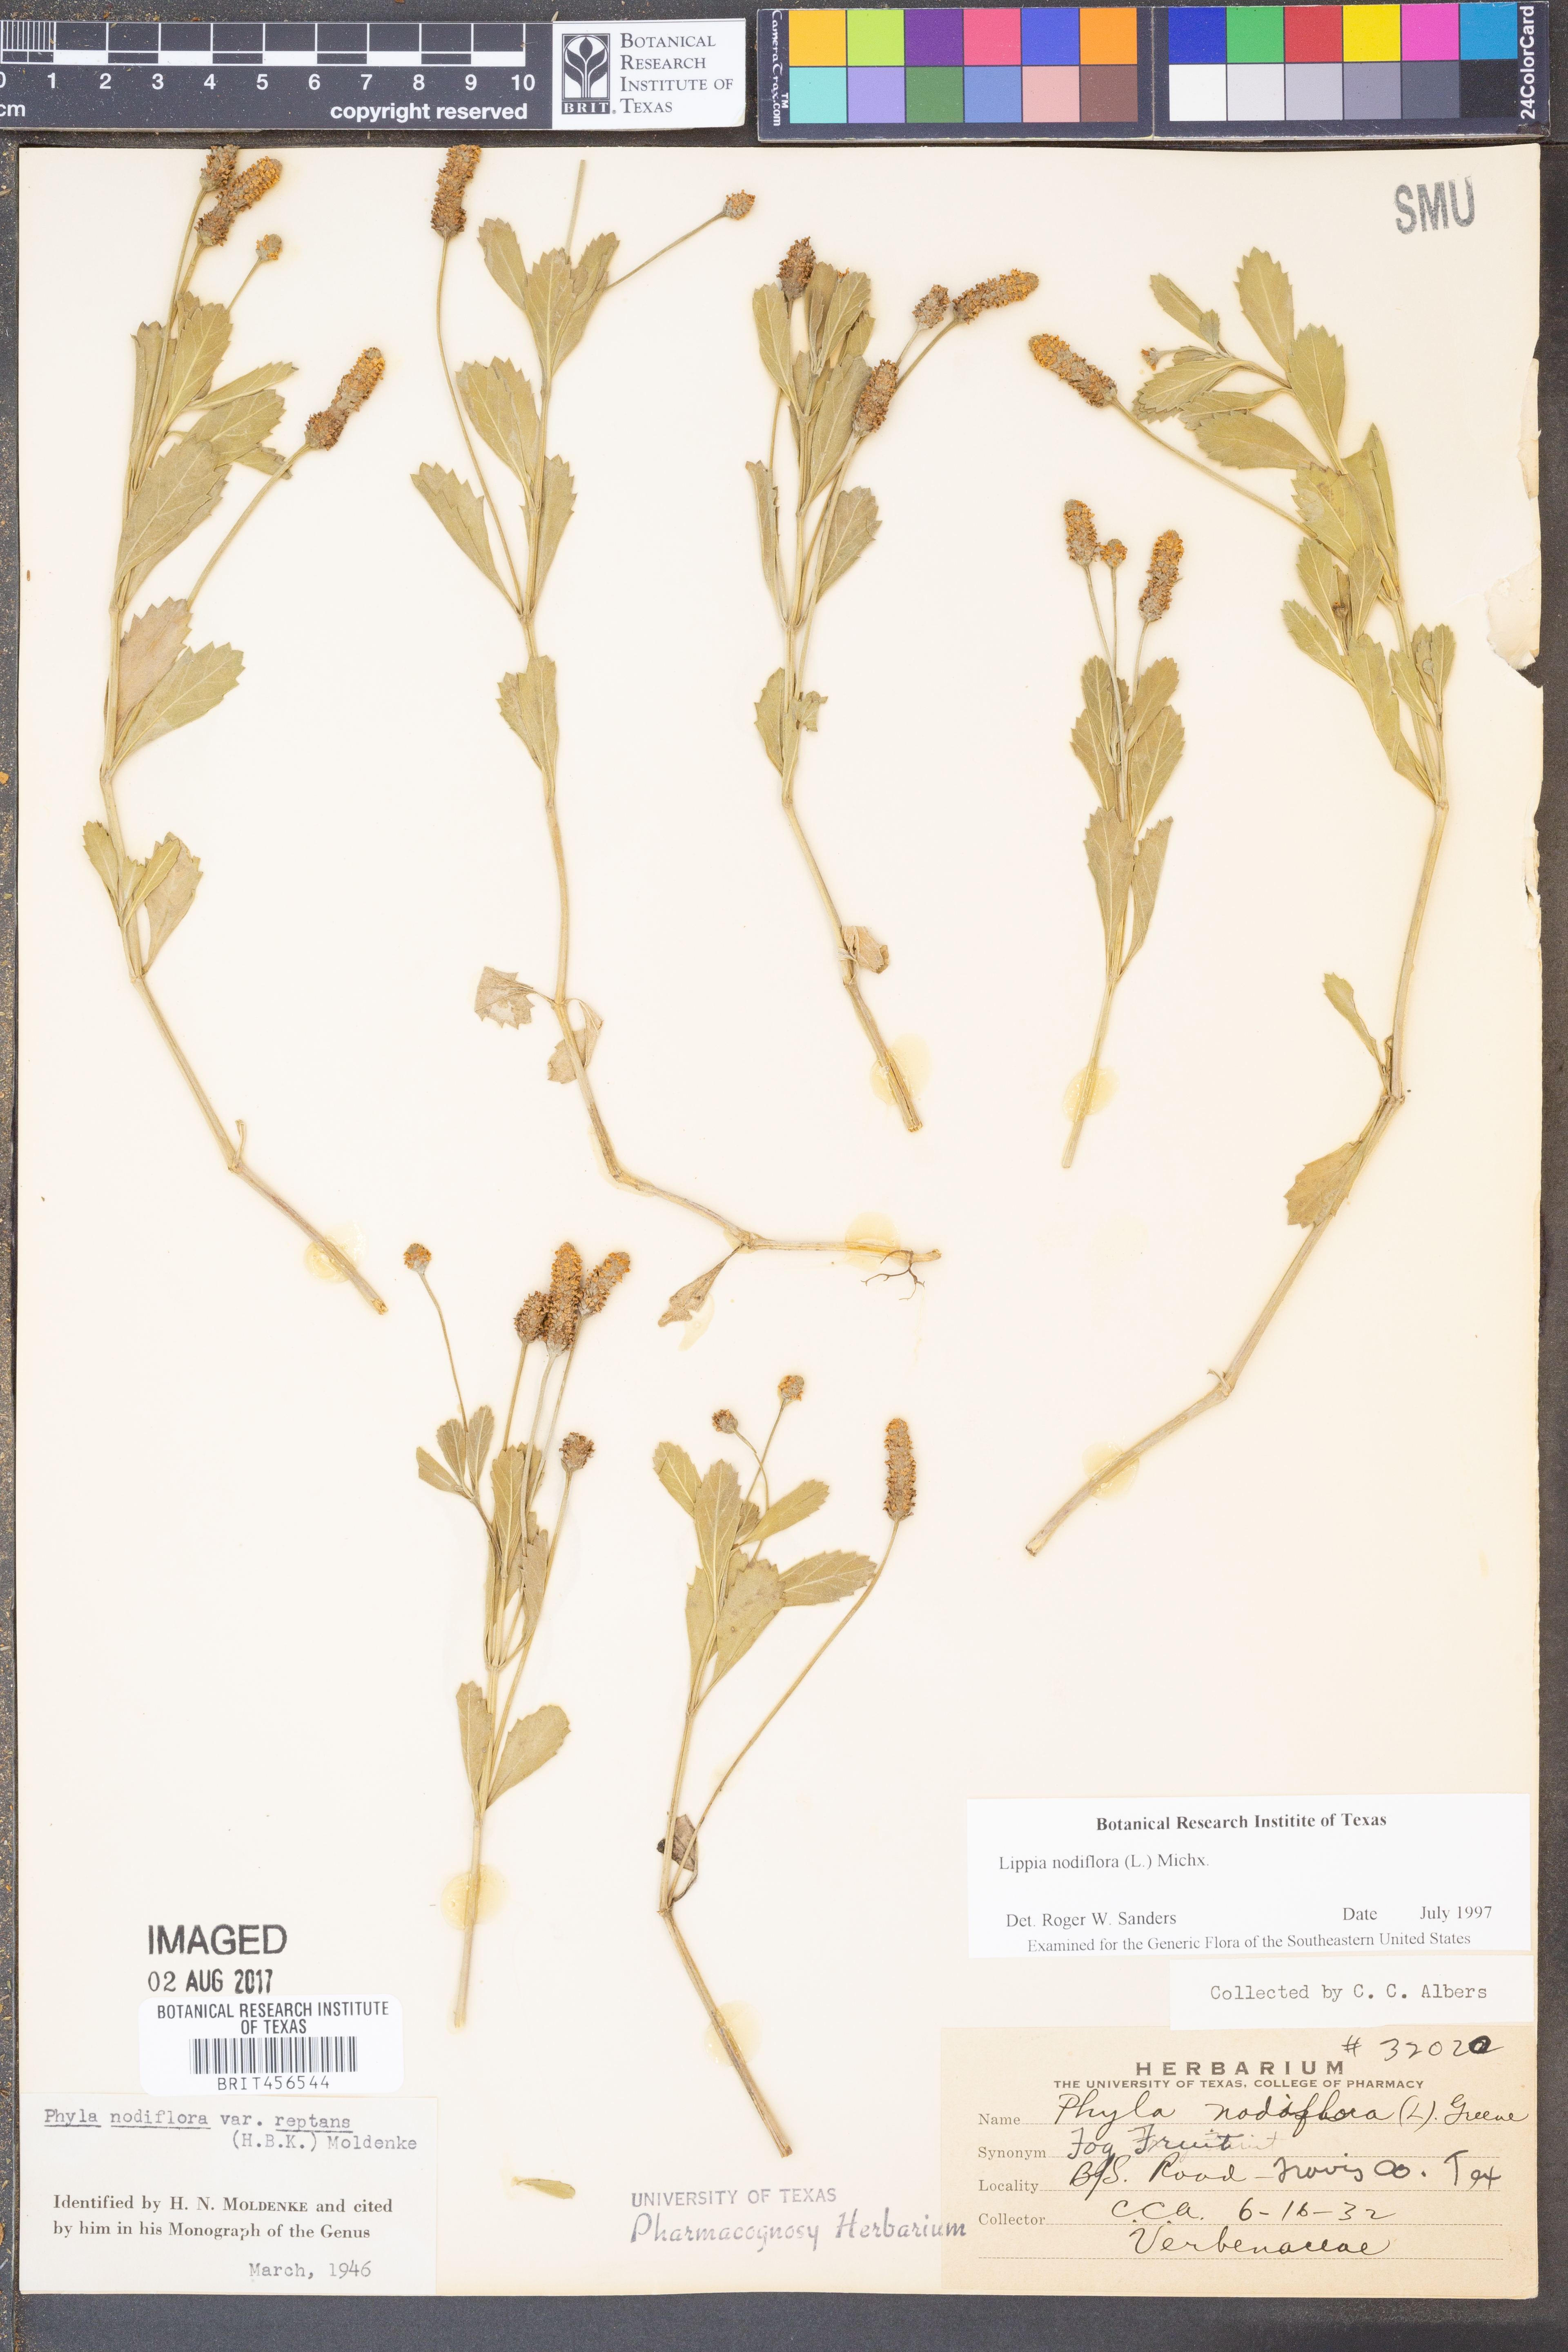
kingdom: Plantae
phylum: Tracheophyta
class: Magnoliopsida
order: Lamiales
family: Verbenaceae
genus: Phyla
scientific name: Phyla nodiflora
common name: Frogfruit
